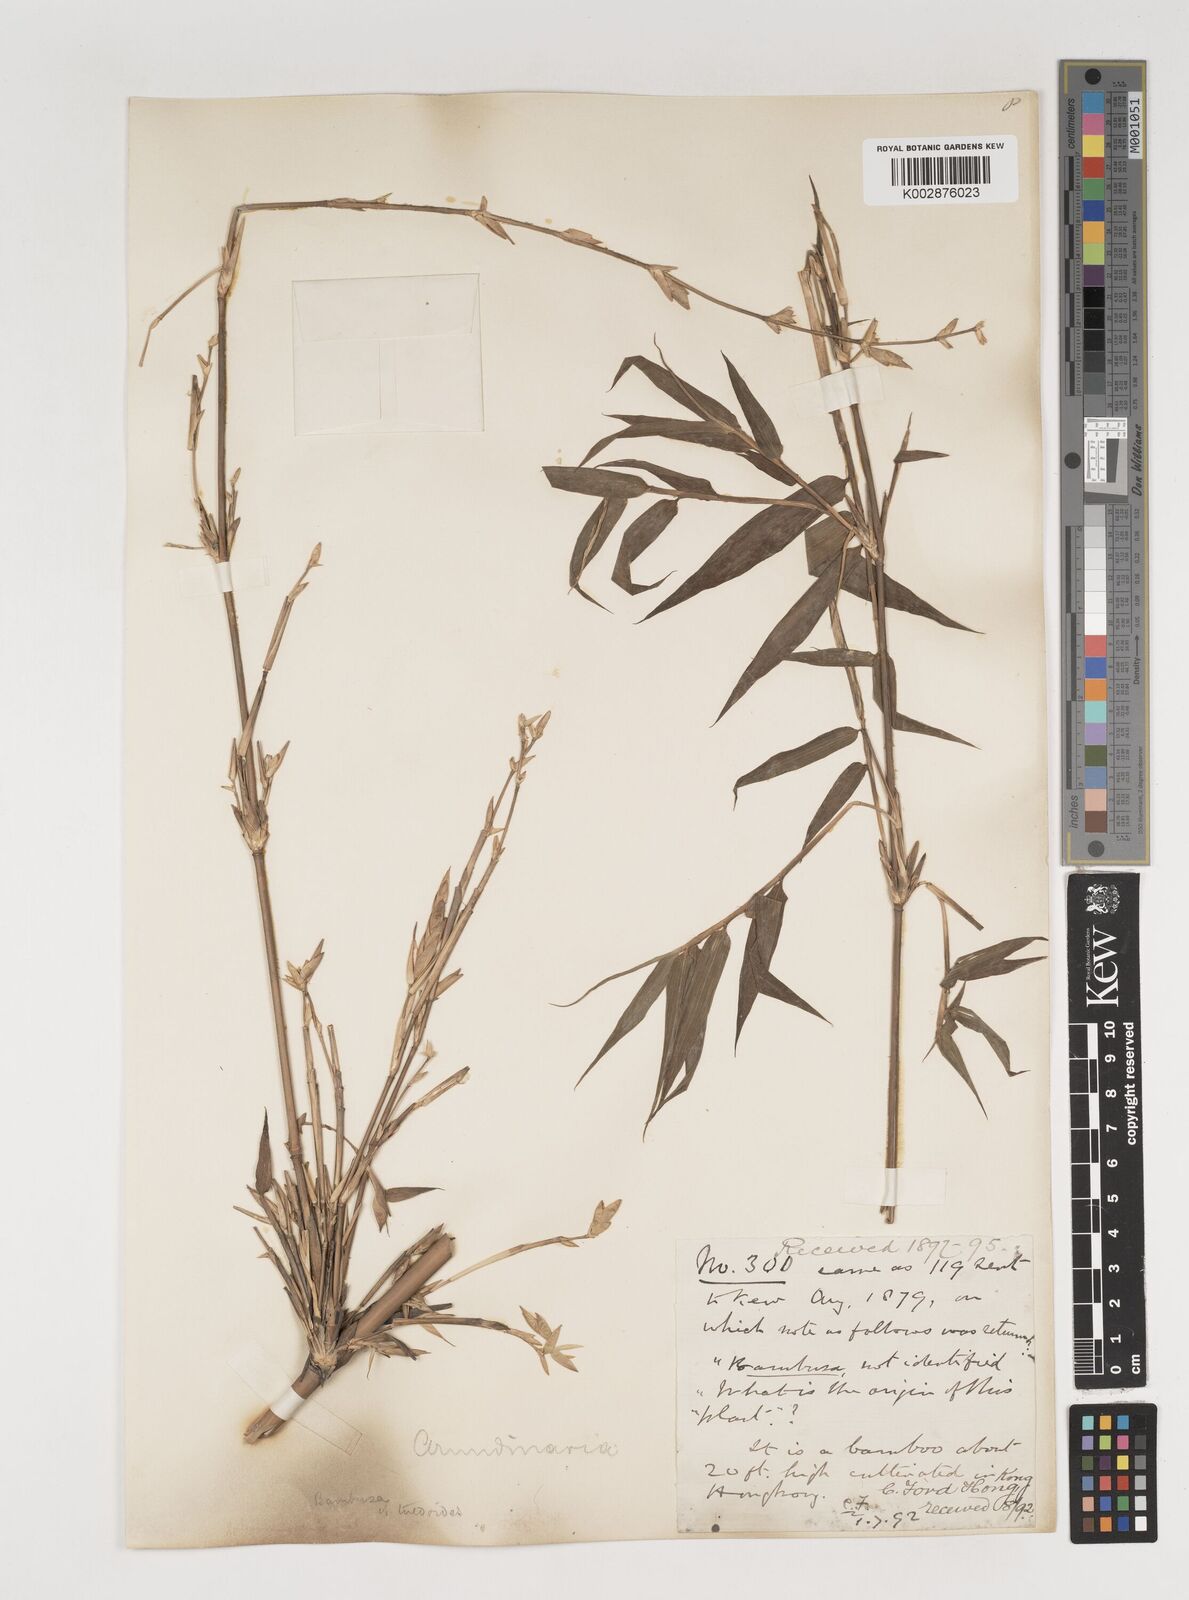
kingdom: Plantae
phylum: Tracheophyta
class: Liliopsida
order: Poales
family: Poaceae
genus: Bambusa
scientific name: Bambusa tuldoides
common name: Verdant bamboo
